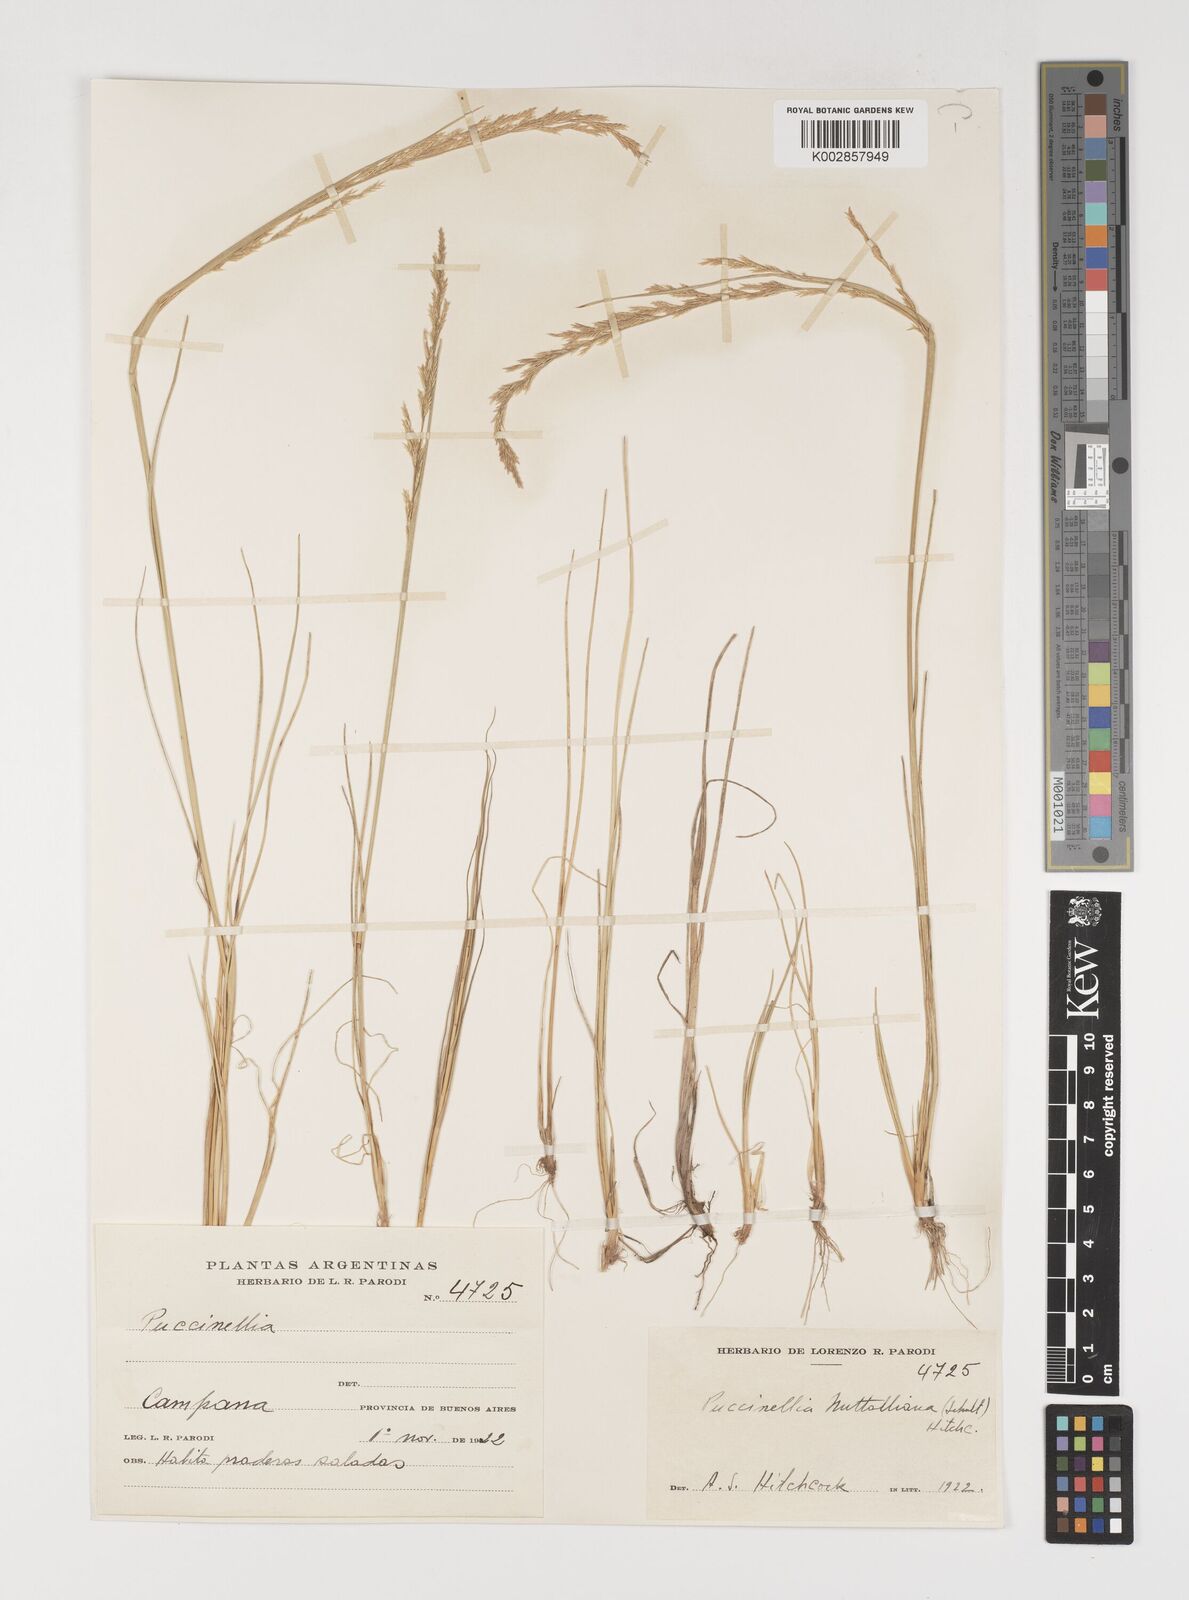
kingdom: Plantae
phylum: Tracheophyta
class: Liliopsida
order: Poales
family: Poaceae
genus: Puccinellia
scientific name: Puccinellia glaucescens
